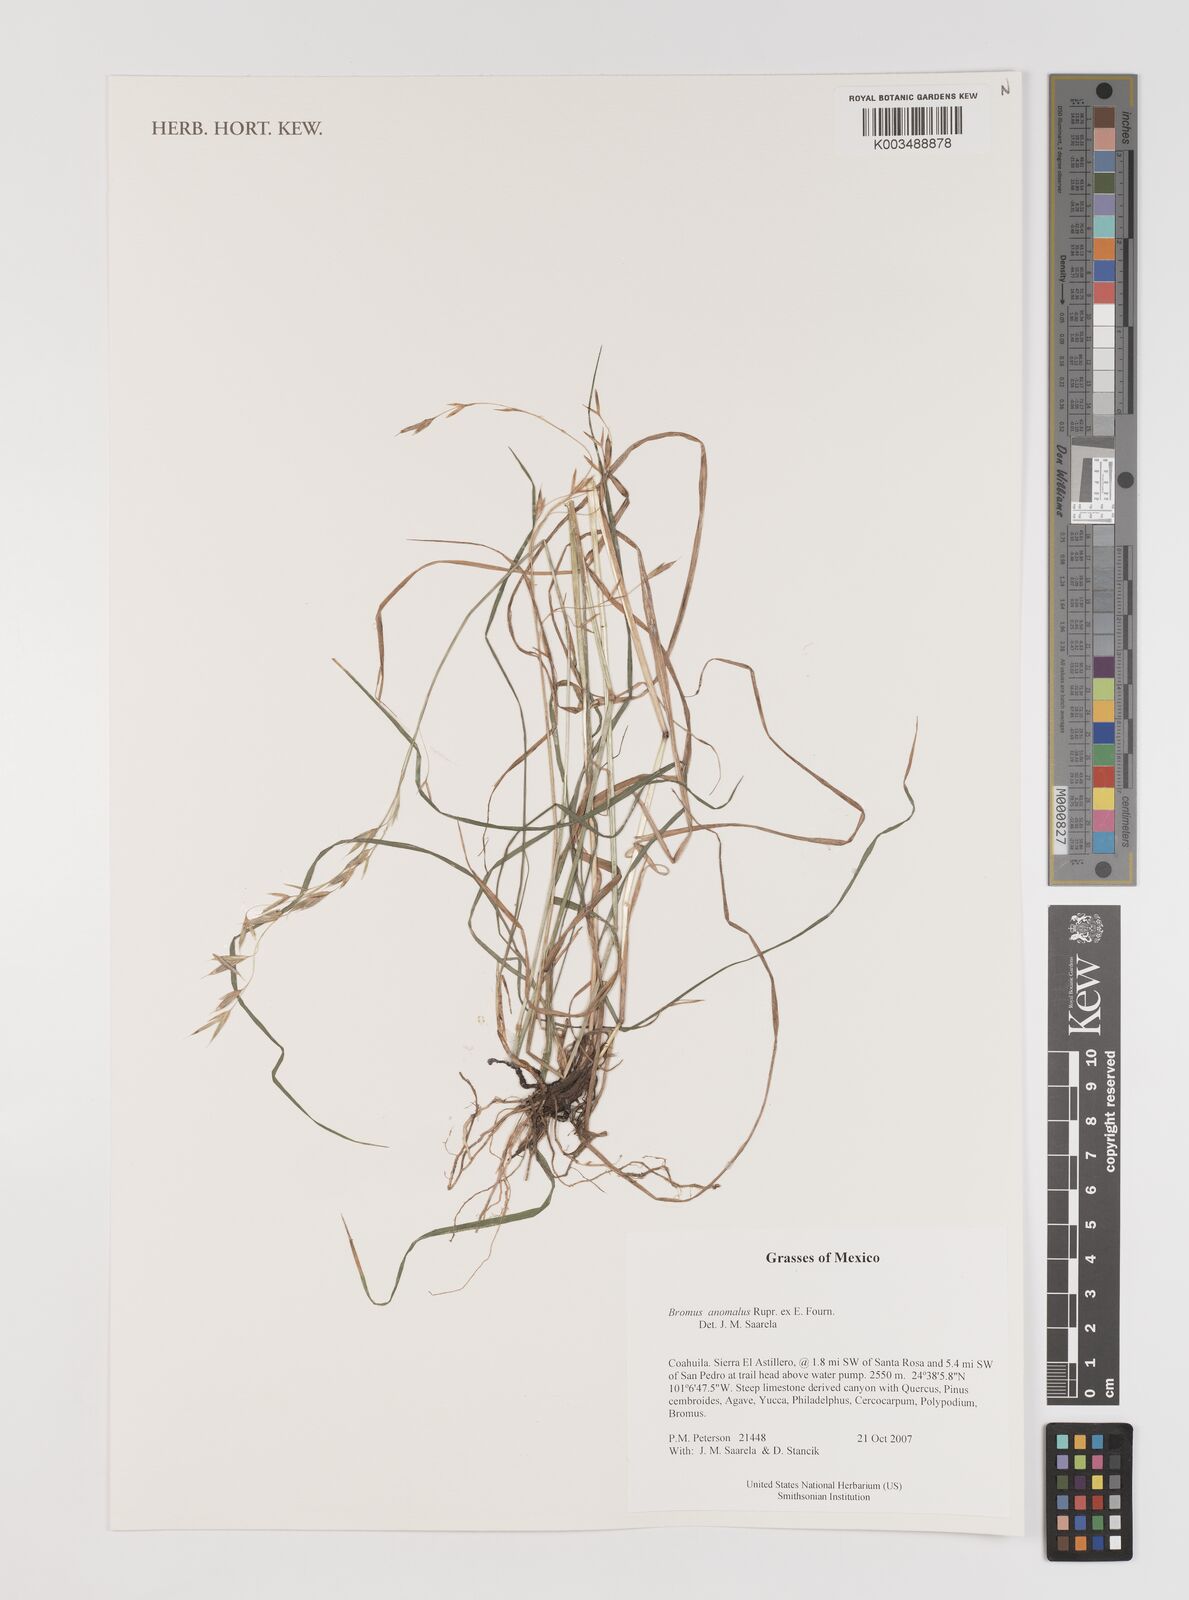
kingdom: Plantae
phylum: Tracheophyta
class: Liliopsida
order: Poales
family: Poaceae
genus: Bromus
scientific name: Bromus anomalus
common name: Nodding brome
